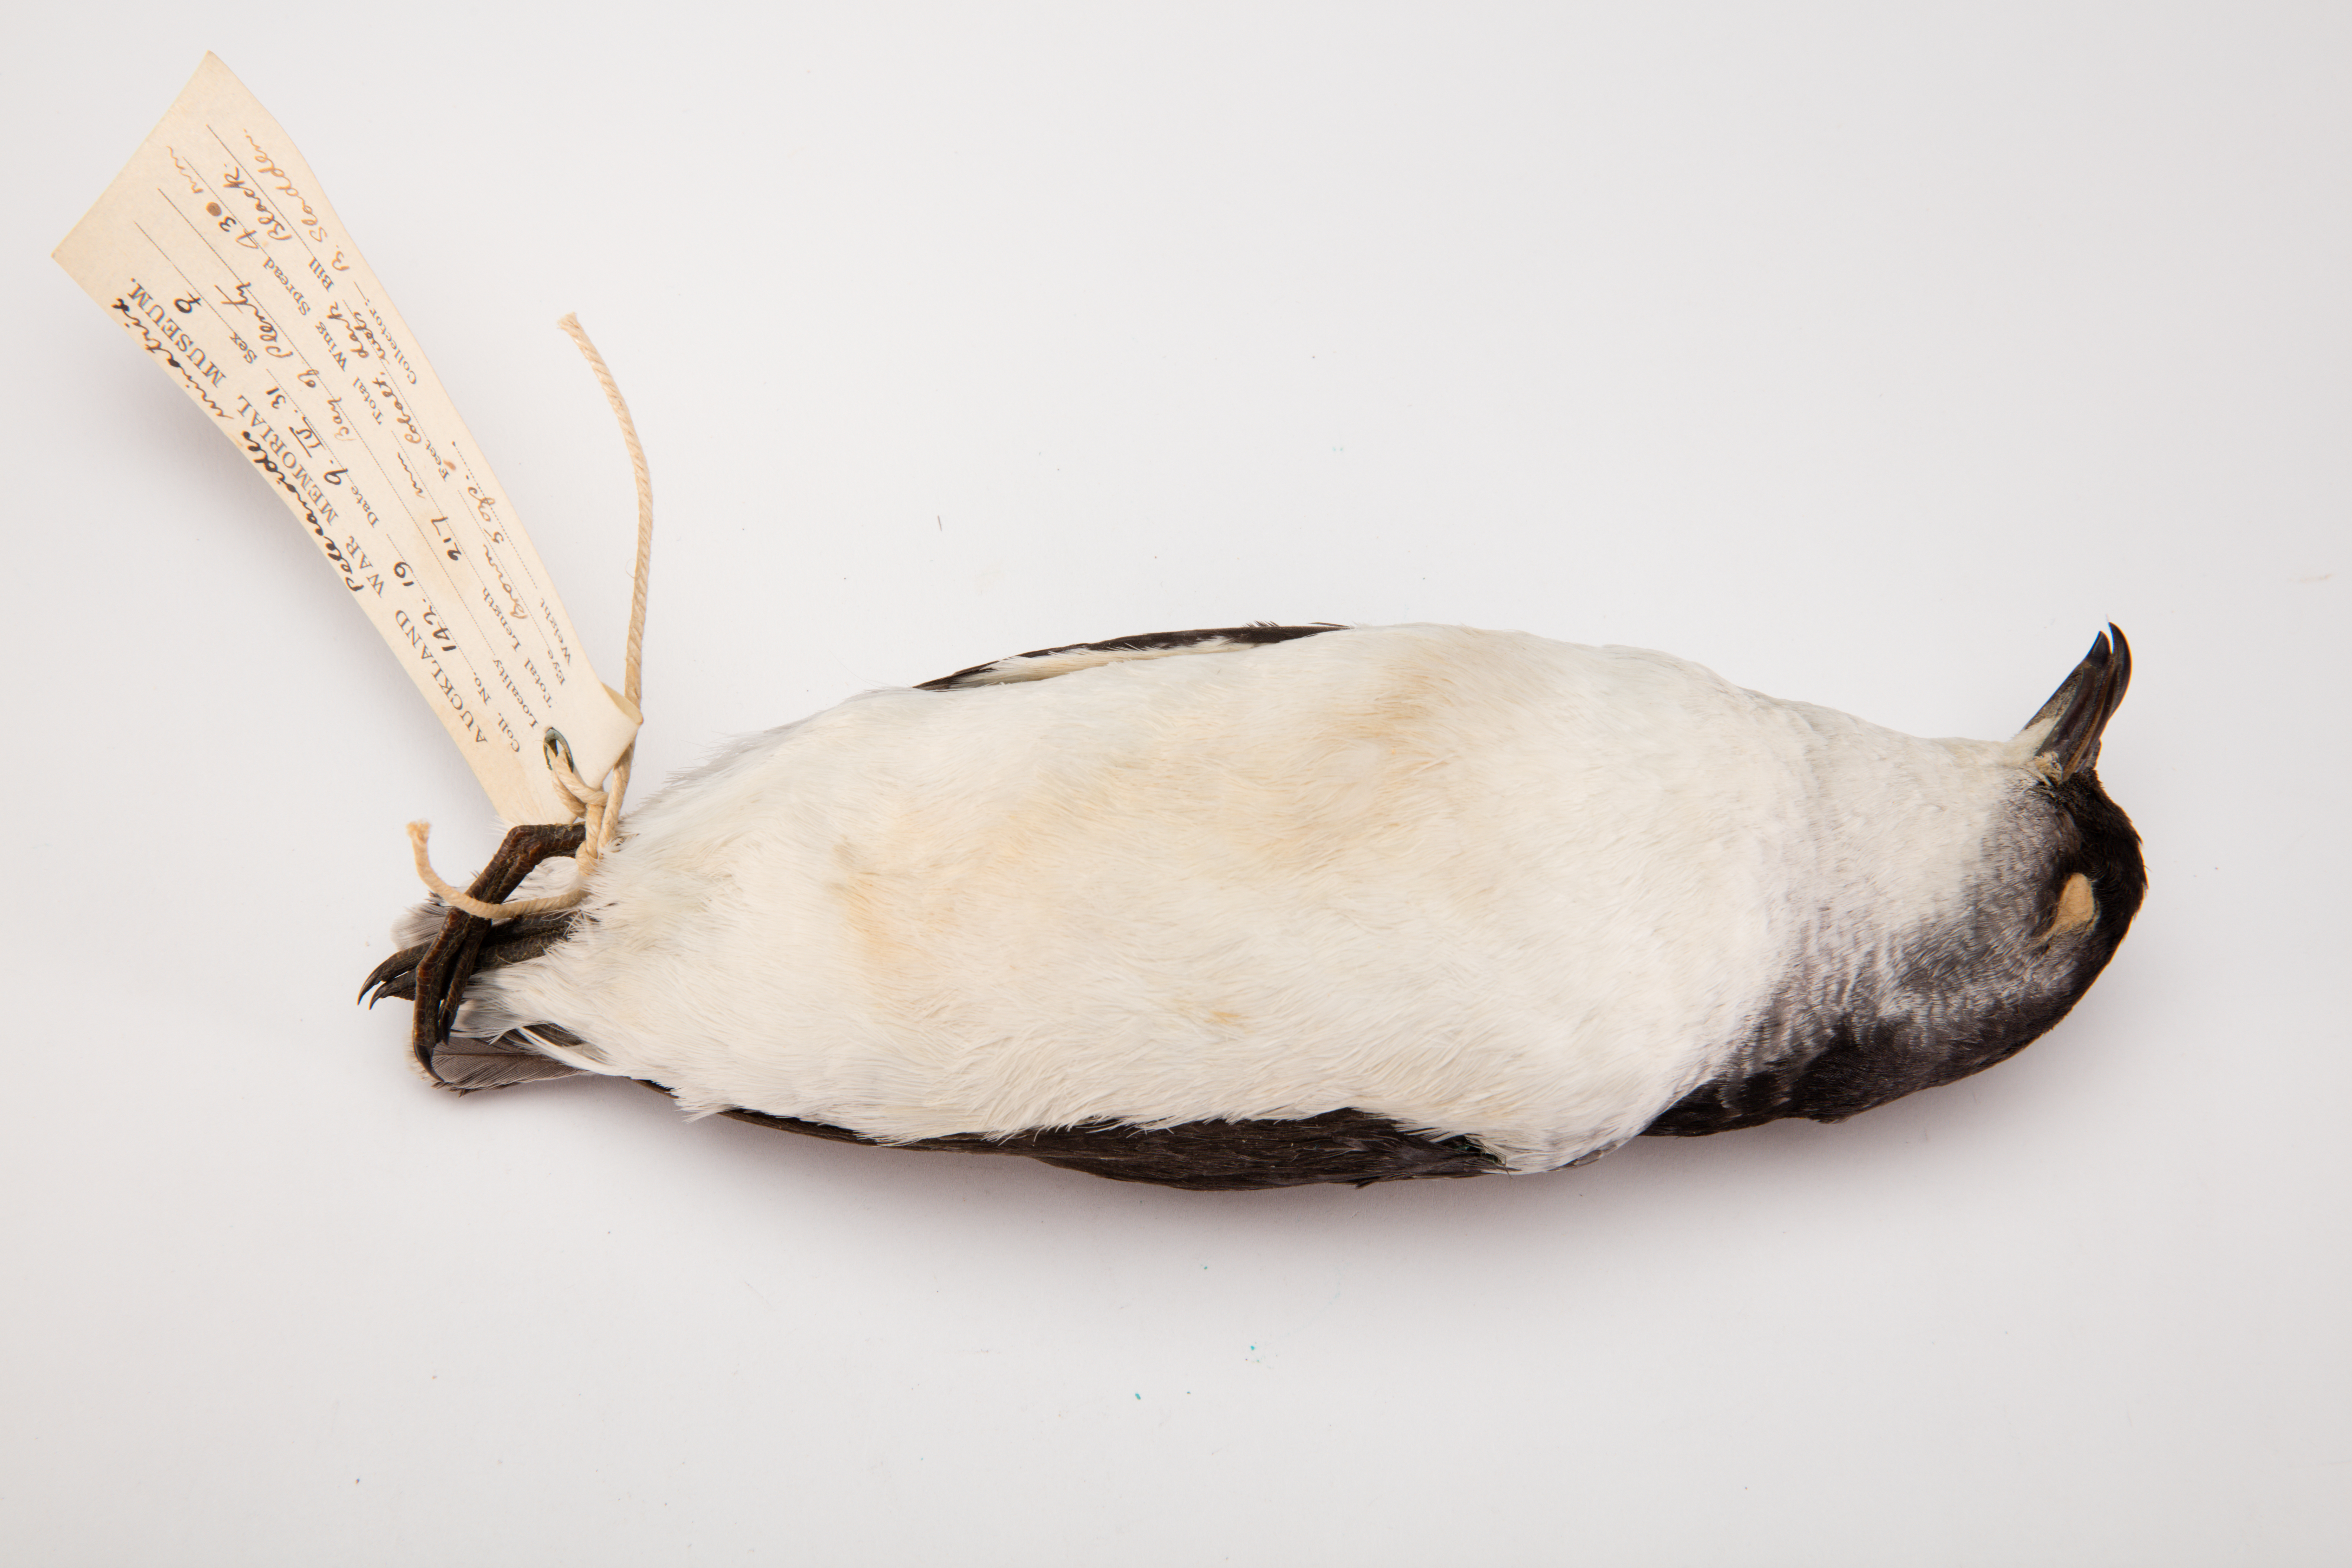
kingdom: Animalia
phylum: Chordata
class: Aves
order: Procellariiformes
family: Pelecanoididae
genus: Pelecanoides
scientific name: Pelecanoides urinatrix
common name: Common diving-petrel
